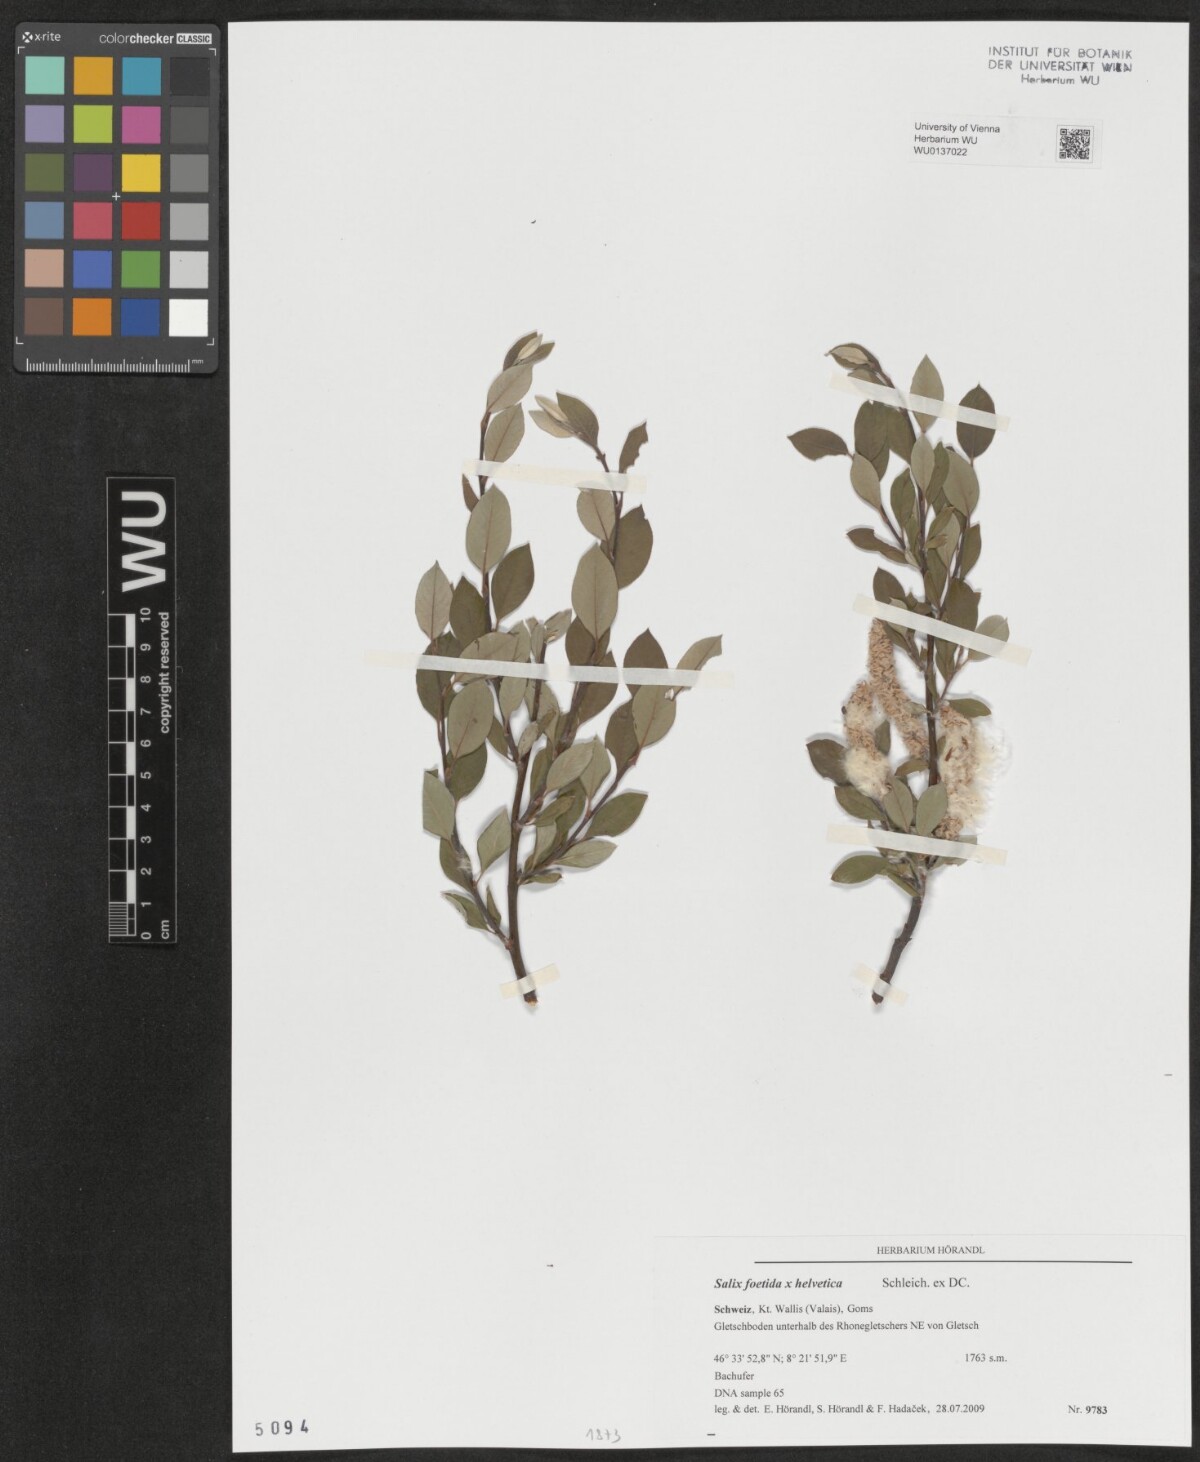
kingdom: Plantae
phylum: Tracheophyta
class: Magnoliopsida
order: Malpighiales
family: Salicaceae
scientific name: Salicaceae
